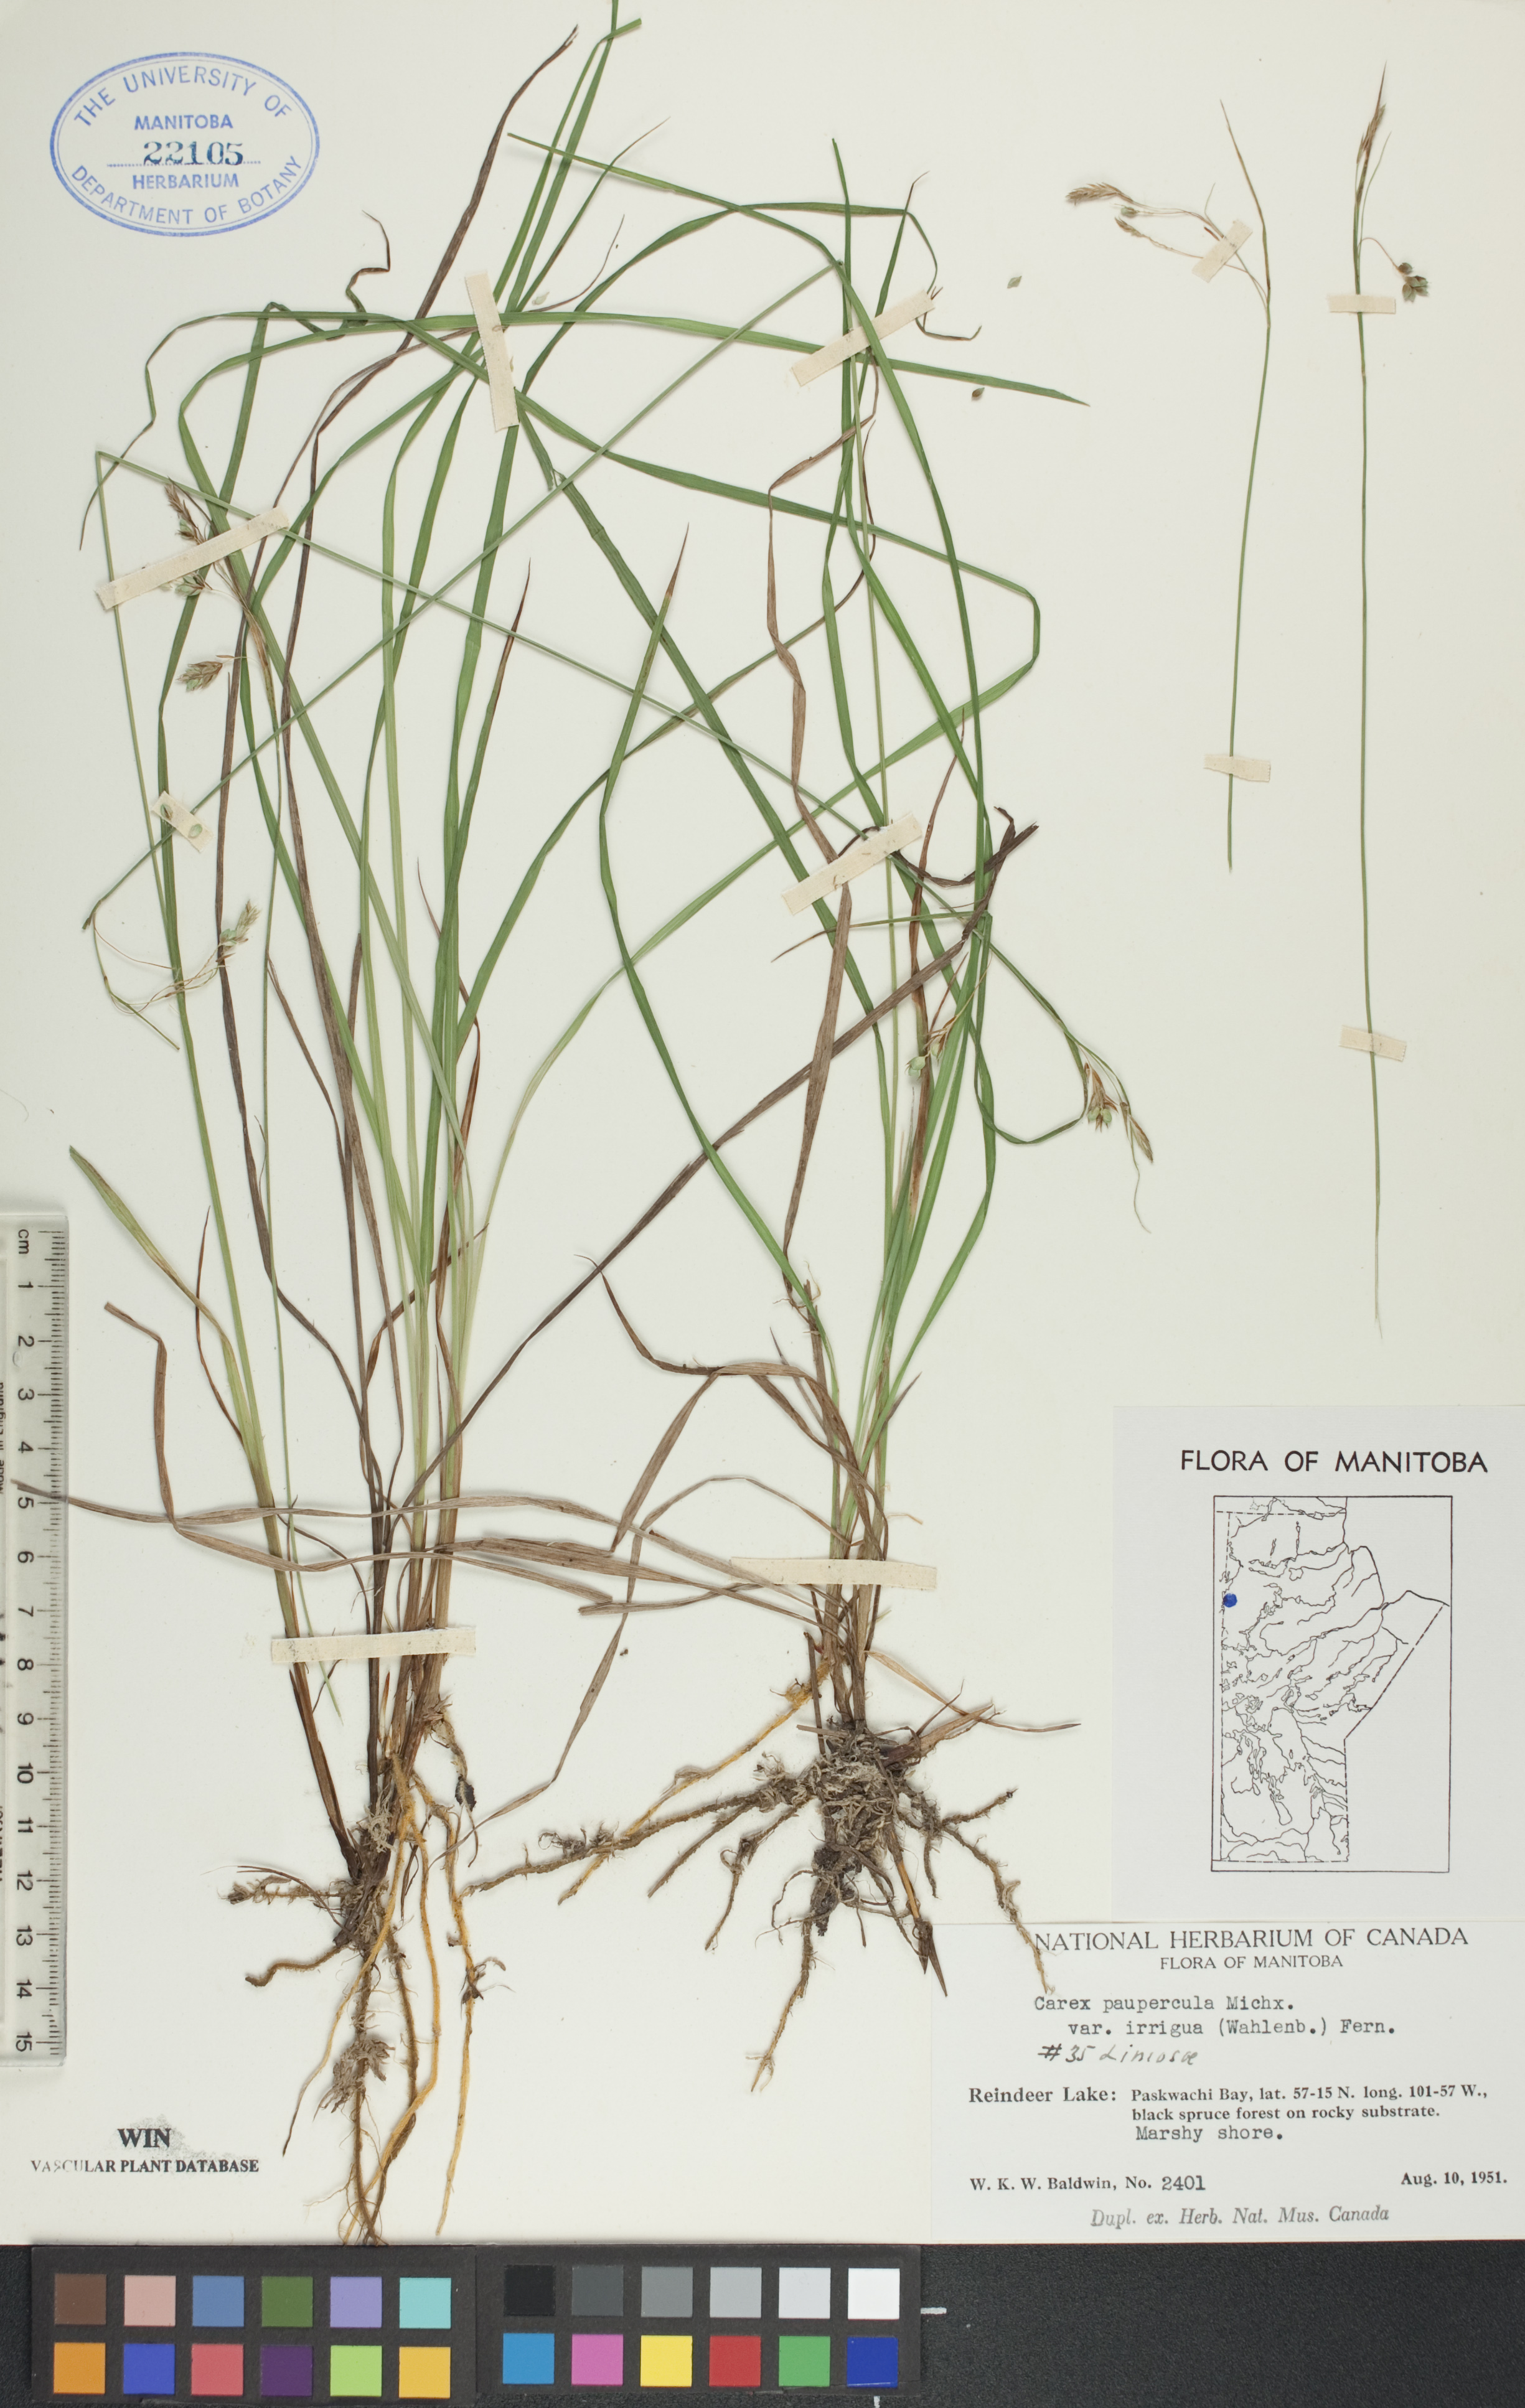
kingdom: Plantae
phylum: Tracheophyta
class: Liliopsida
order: Poales
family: Cyperaceae
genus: Carex
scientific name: Carex magellanica
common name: Bog sedge
